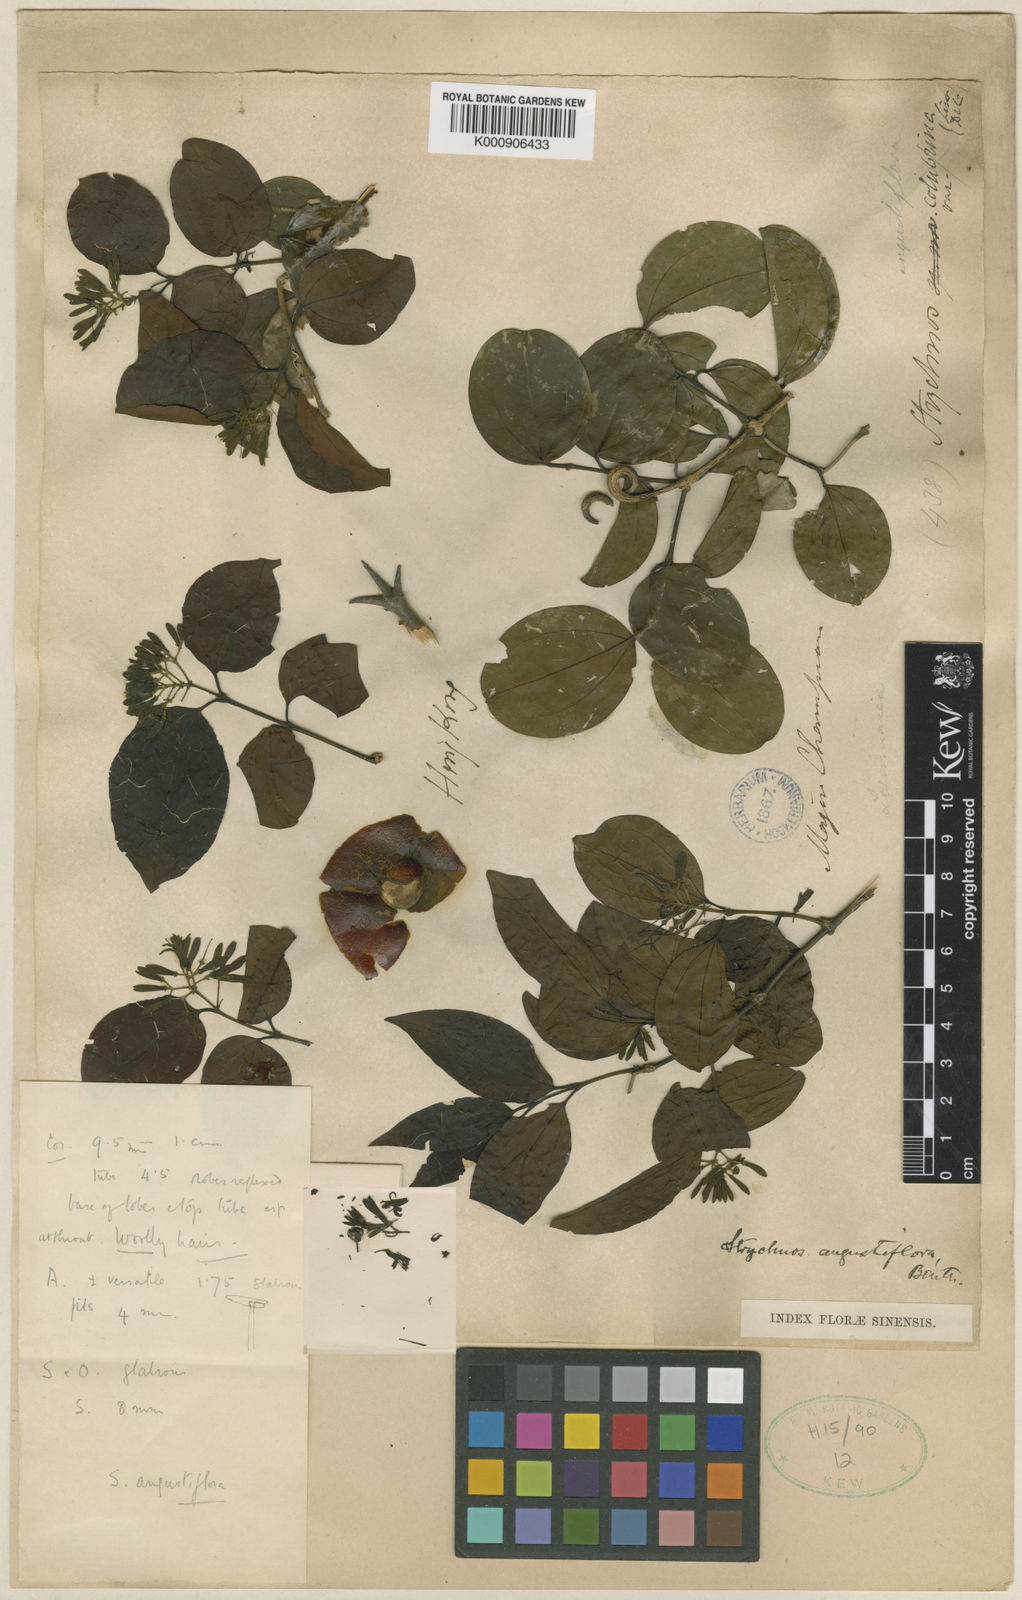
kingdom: Plantae
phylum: Tracheophyta
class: Magnoliopsida
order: Gentianales
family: Loganiaceae
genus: Strychnos
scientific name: Strychnos angustiflora
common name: Narrow-flower poisonnut
